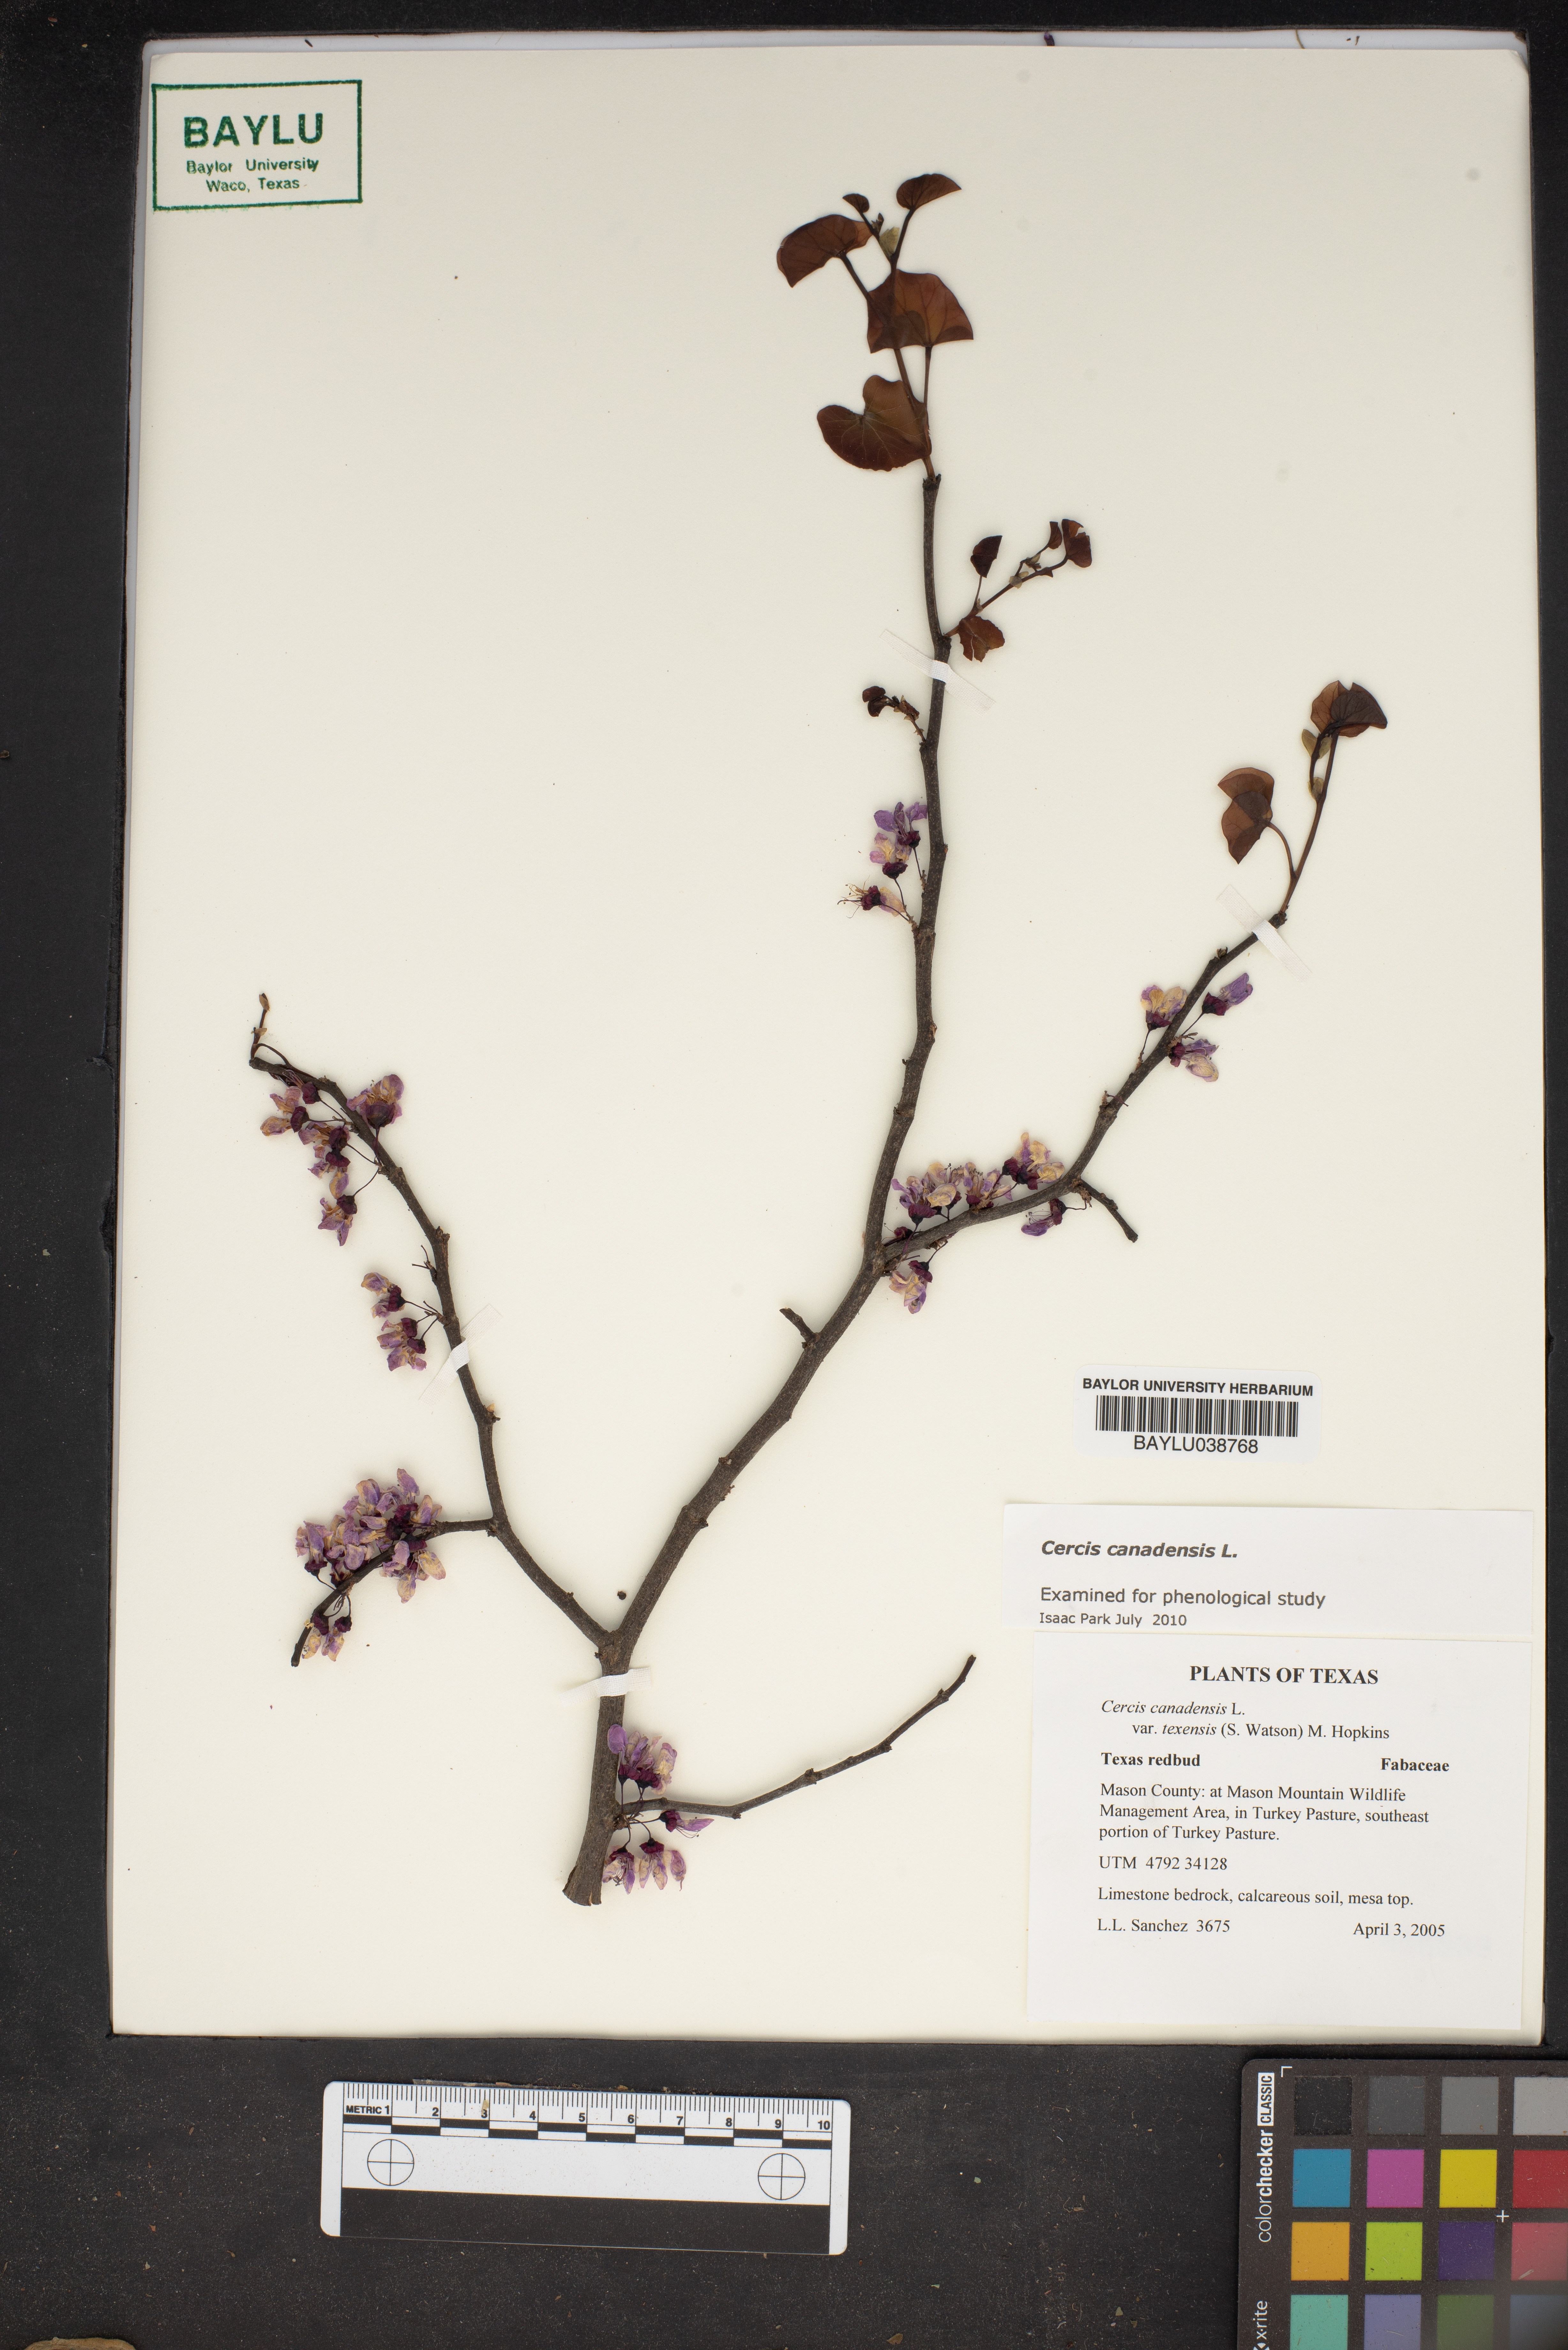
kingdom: Plantae
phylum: Tracheophyta
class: Magnoliopsida
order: Fabales
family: Fabaceae
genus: Cercis
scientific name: Cercis canadensis
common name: Eastern redbud
